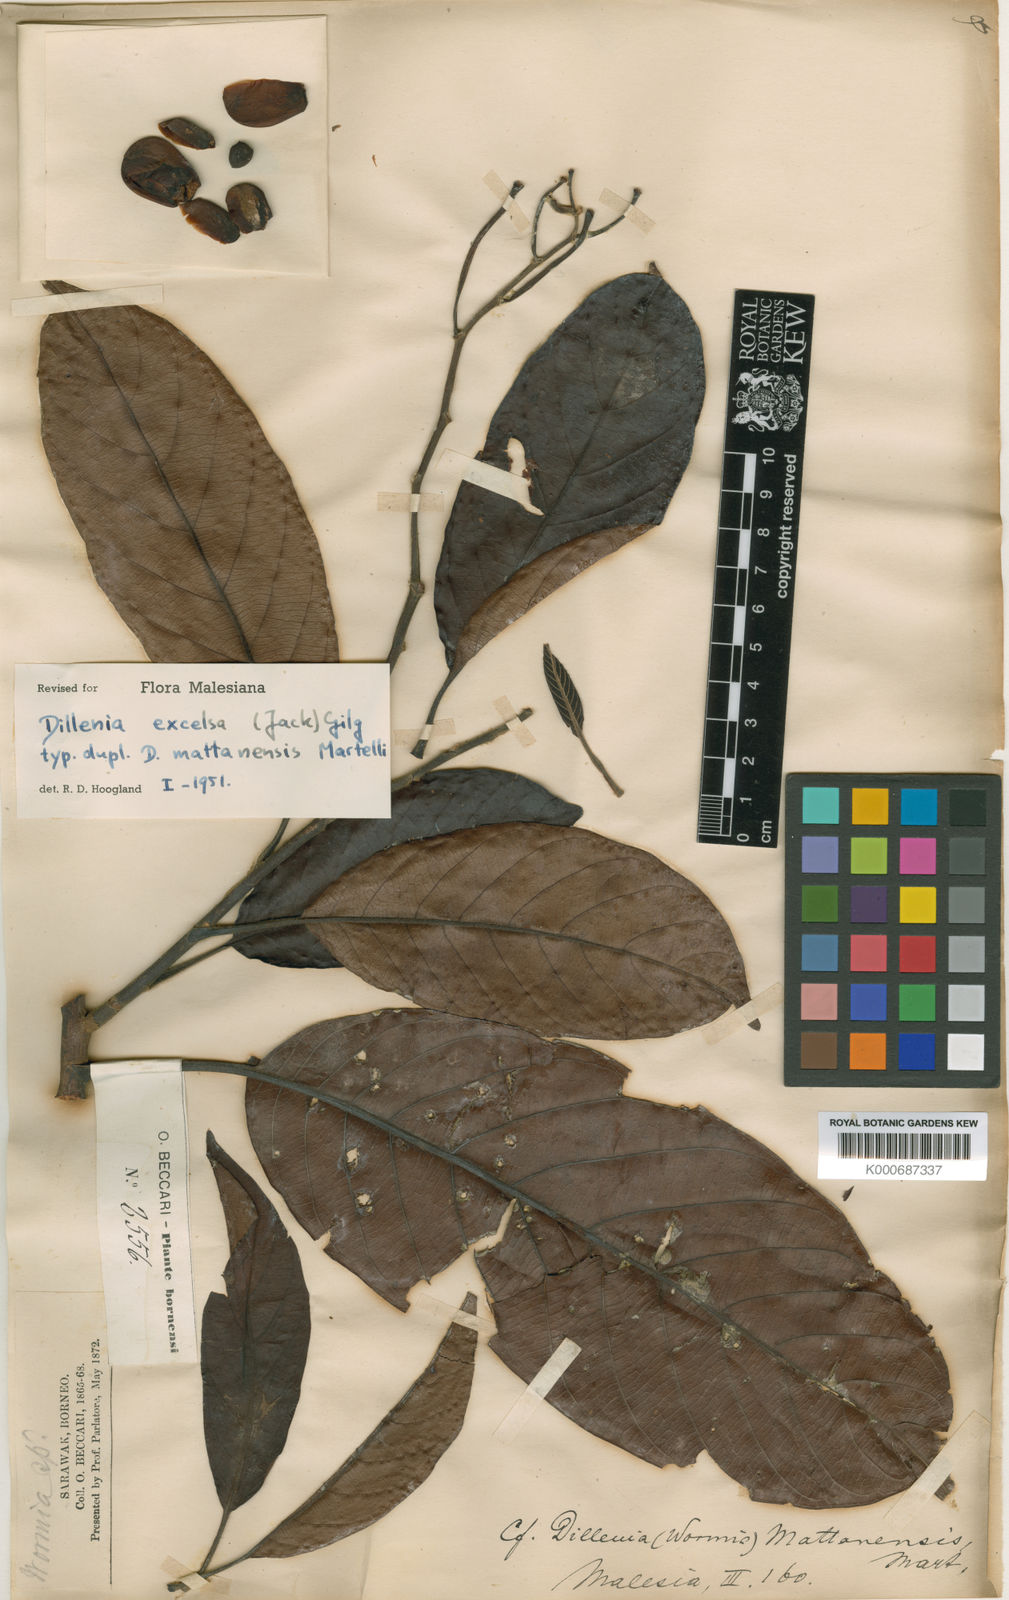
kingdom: Plantae
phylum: Tracheophyta
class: Magnoliopsida
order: Dilleniales
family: Dilleniaceae
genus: Dillenia
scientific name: Dillenia
